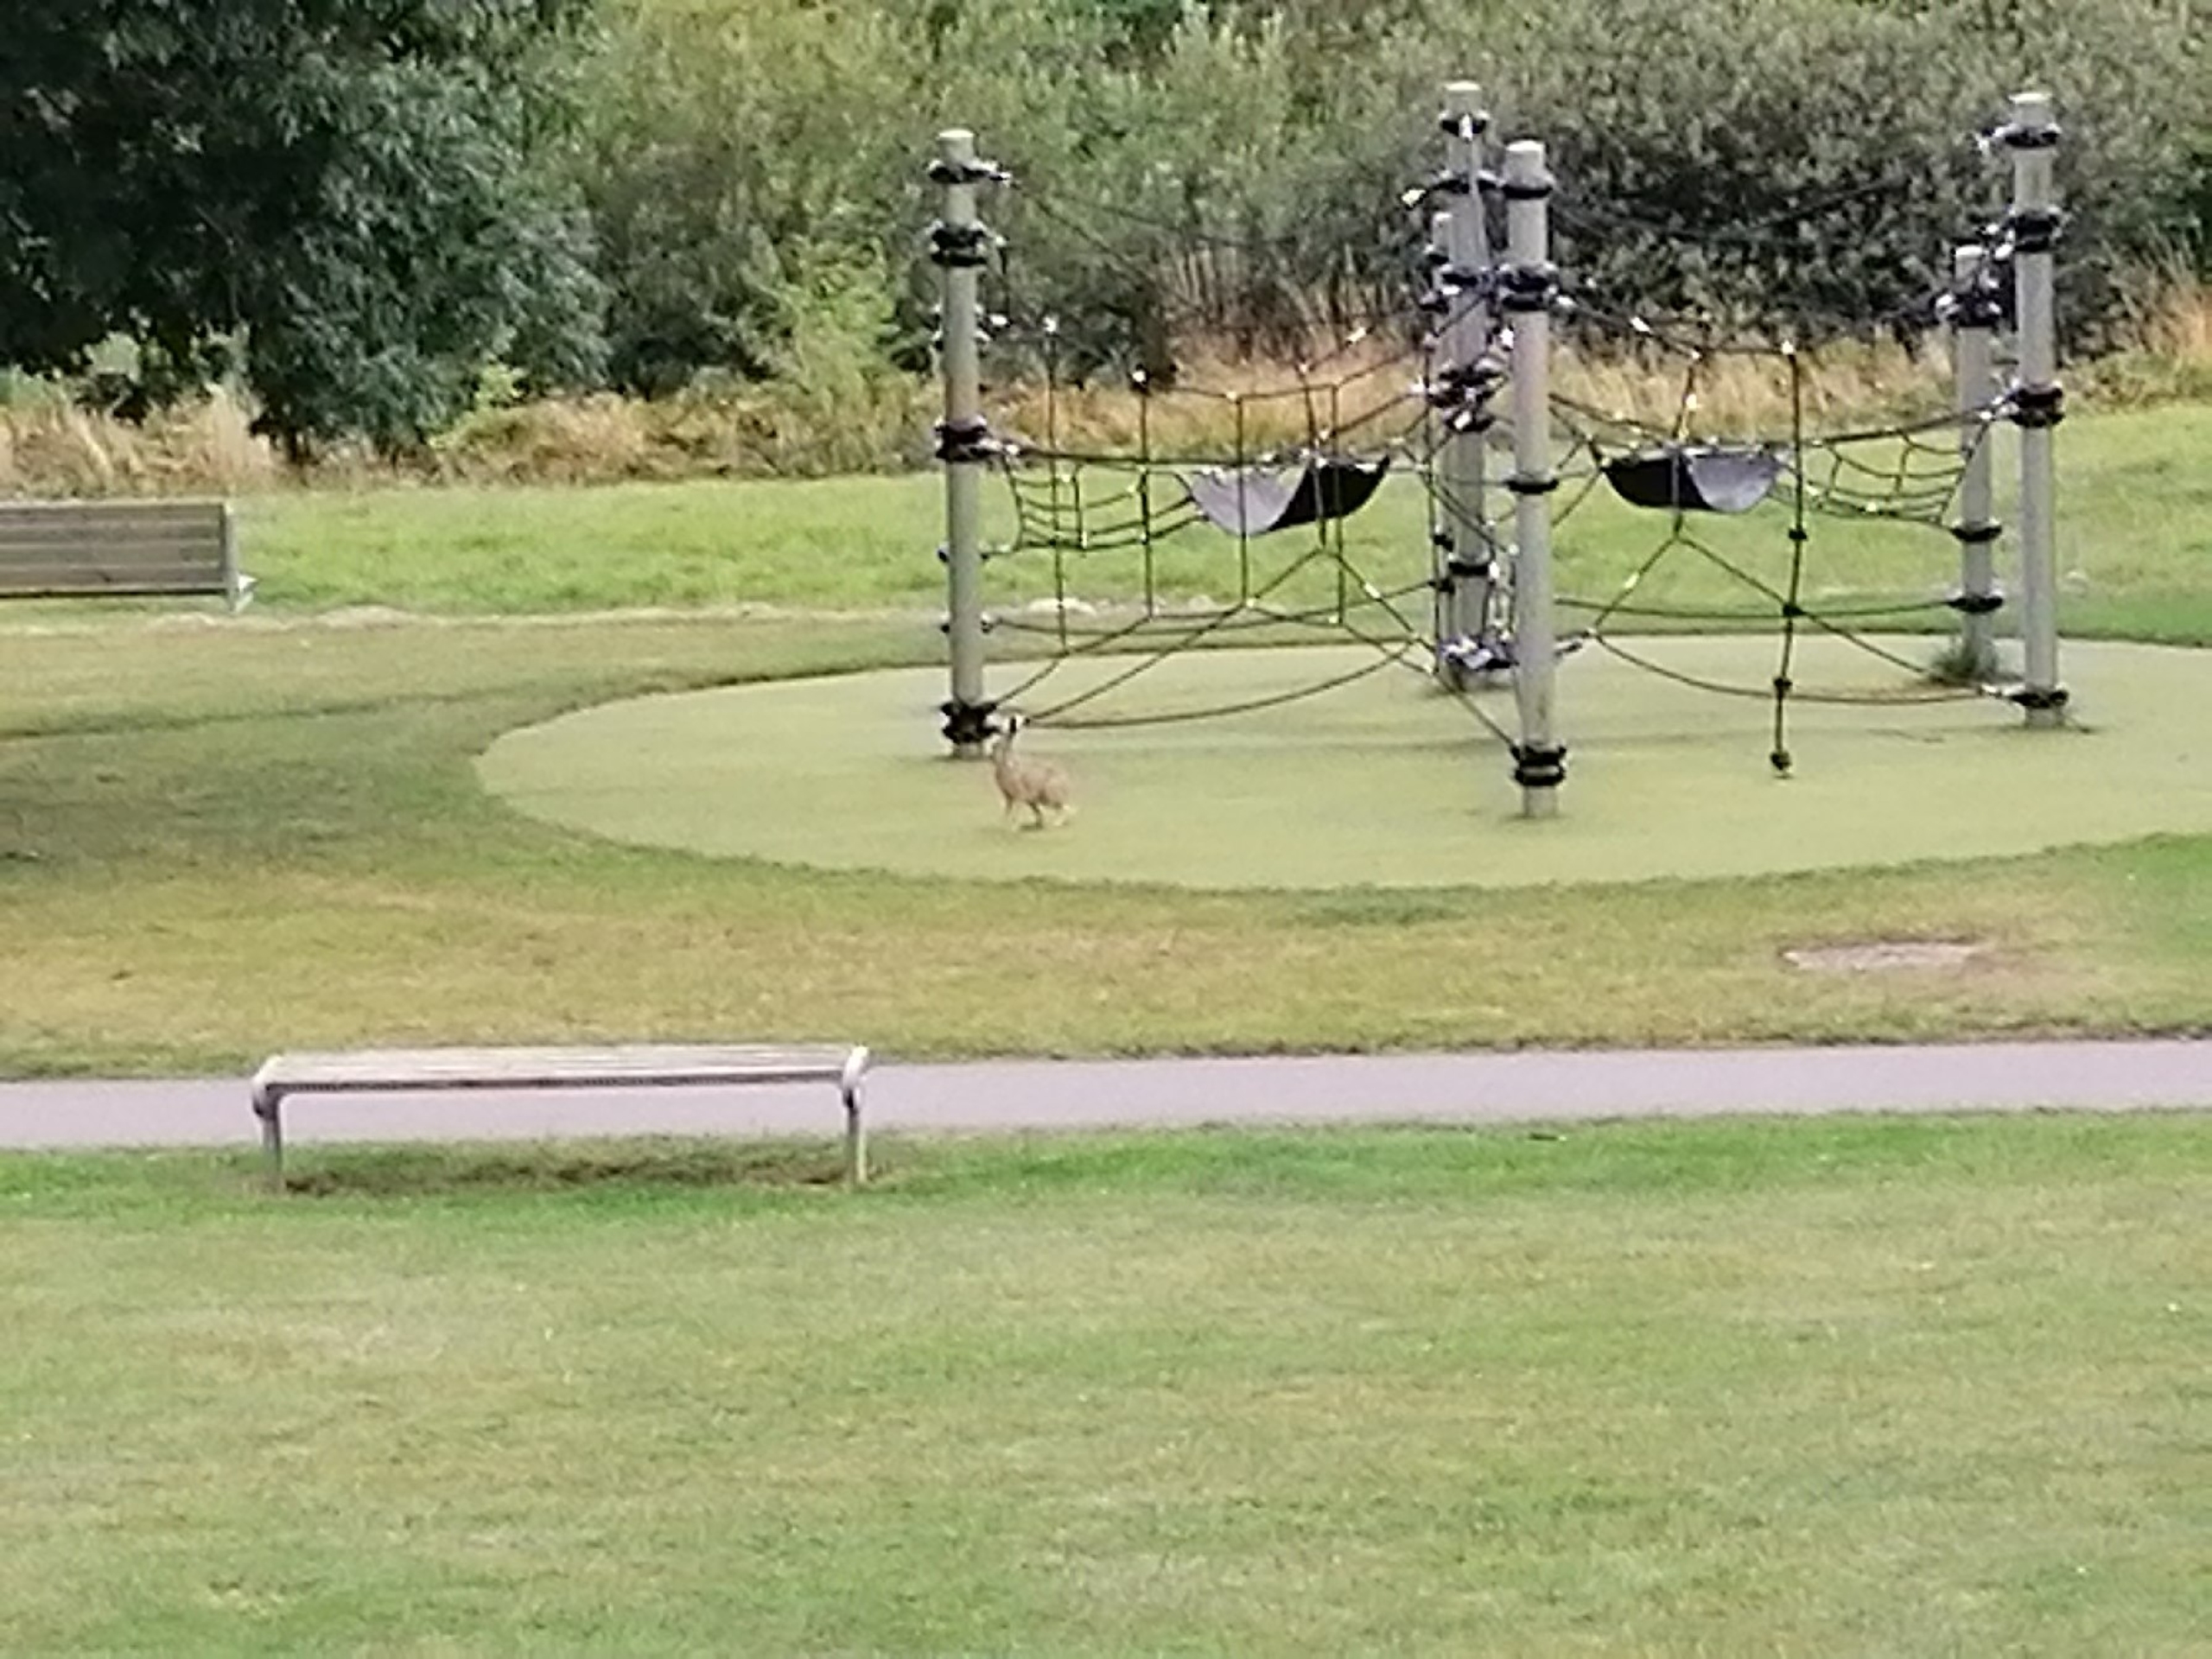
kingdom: Animalia
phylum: Chordata
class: Mammalia
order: Lagomorpha
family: Leporidae
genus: Lepus
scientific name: Lepus europaeus
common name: Hare
